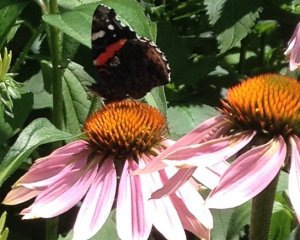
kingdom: Animalia
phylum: Arthropoda
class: Insecta
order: Lepidoptera
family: Nymphalidae
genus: Vanessa
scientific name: Vanessa atalanta
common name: Red Admiral
